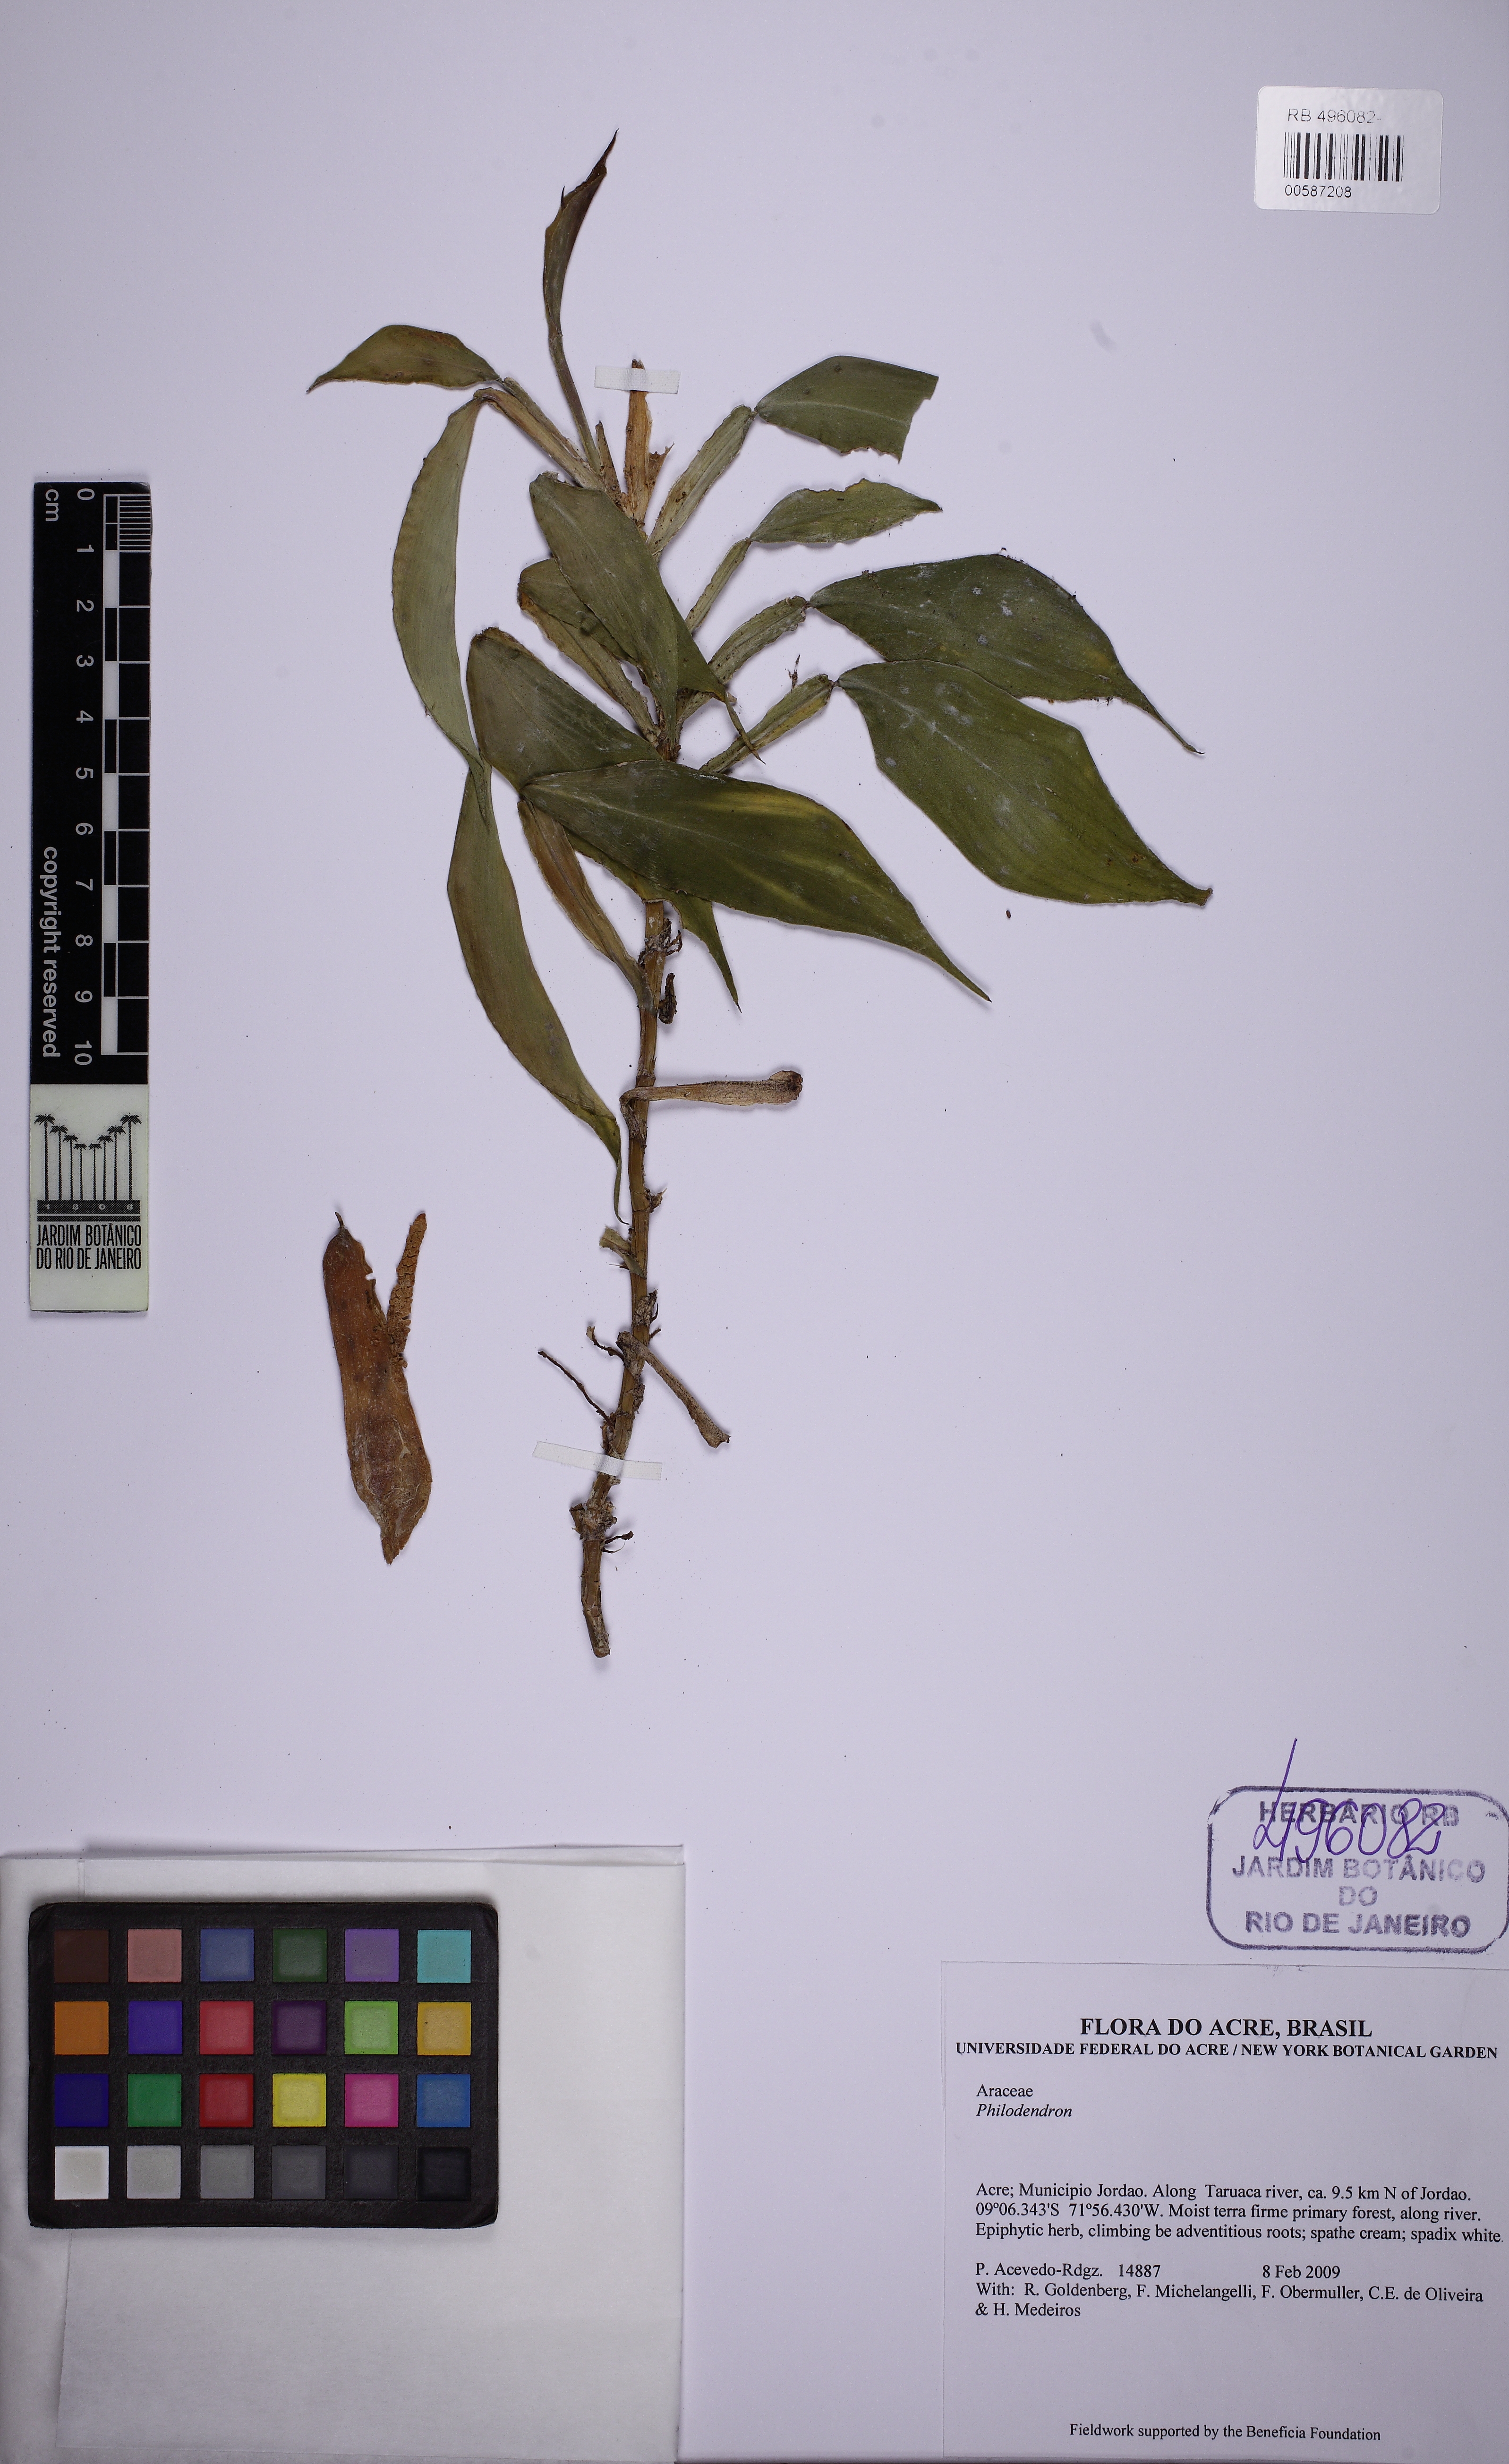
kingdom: Plantae
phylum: Tracheophyta
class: Liliopsida
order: Alismatales
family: Araceae
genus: Philodendron
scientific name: Philodendron pteropus
